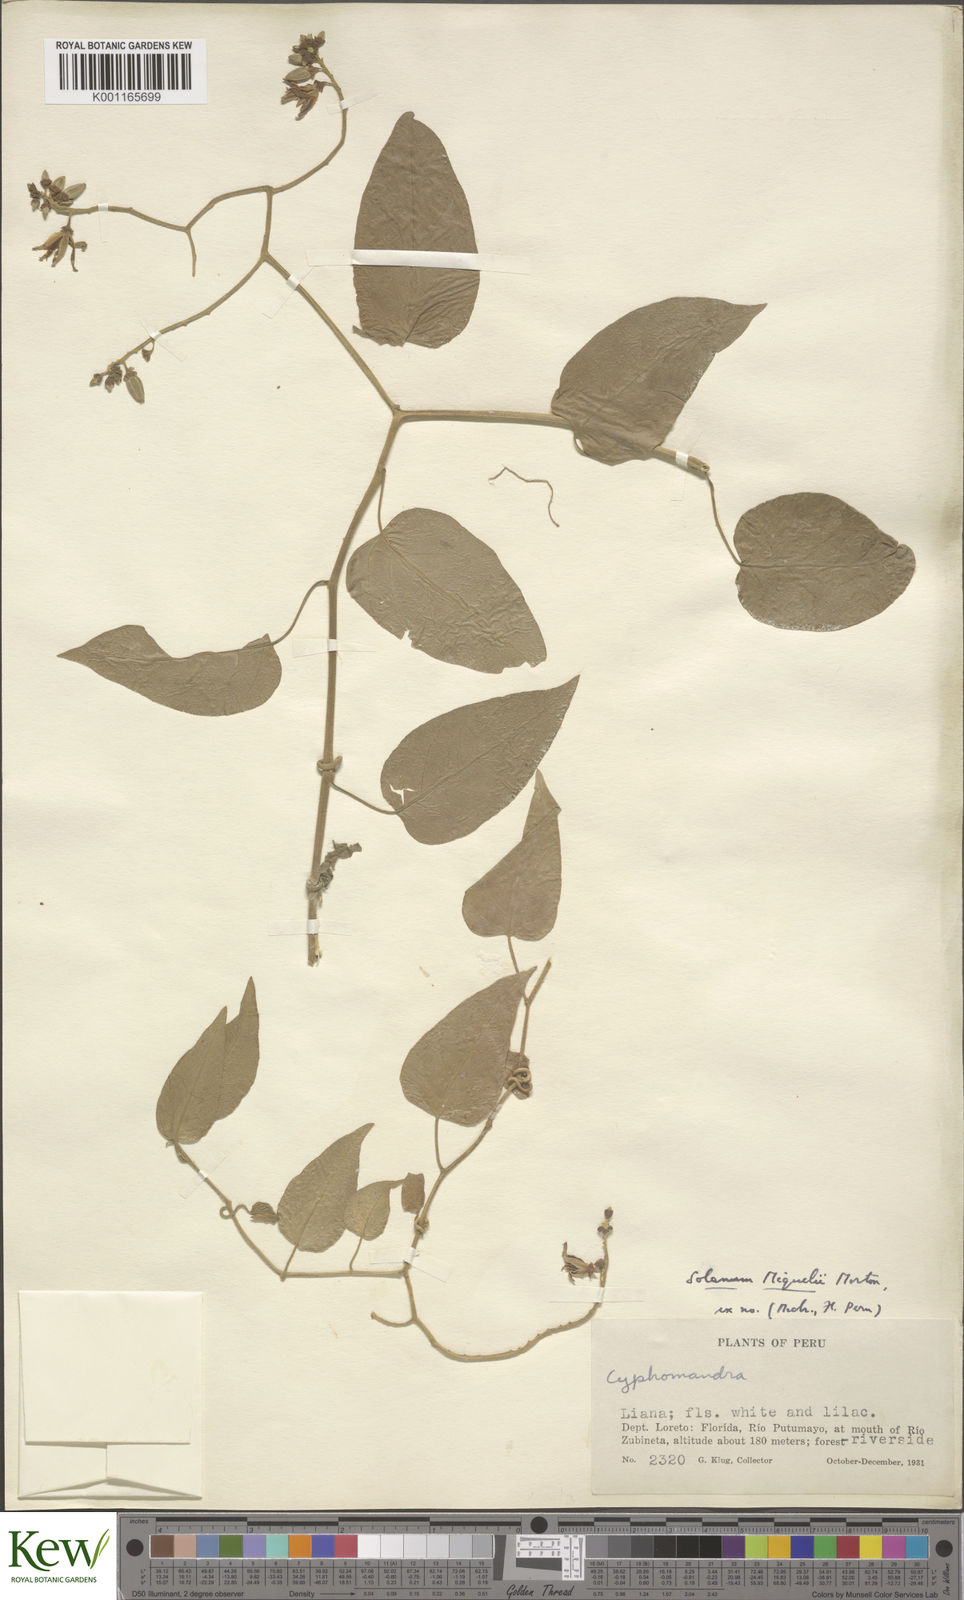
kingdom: Plantae
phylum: Tracheophyta
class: Magnoliopsida
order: Solanales
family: Solanaceae
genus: Solanum
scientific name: Solanum uncinellum
